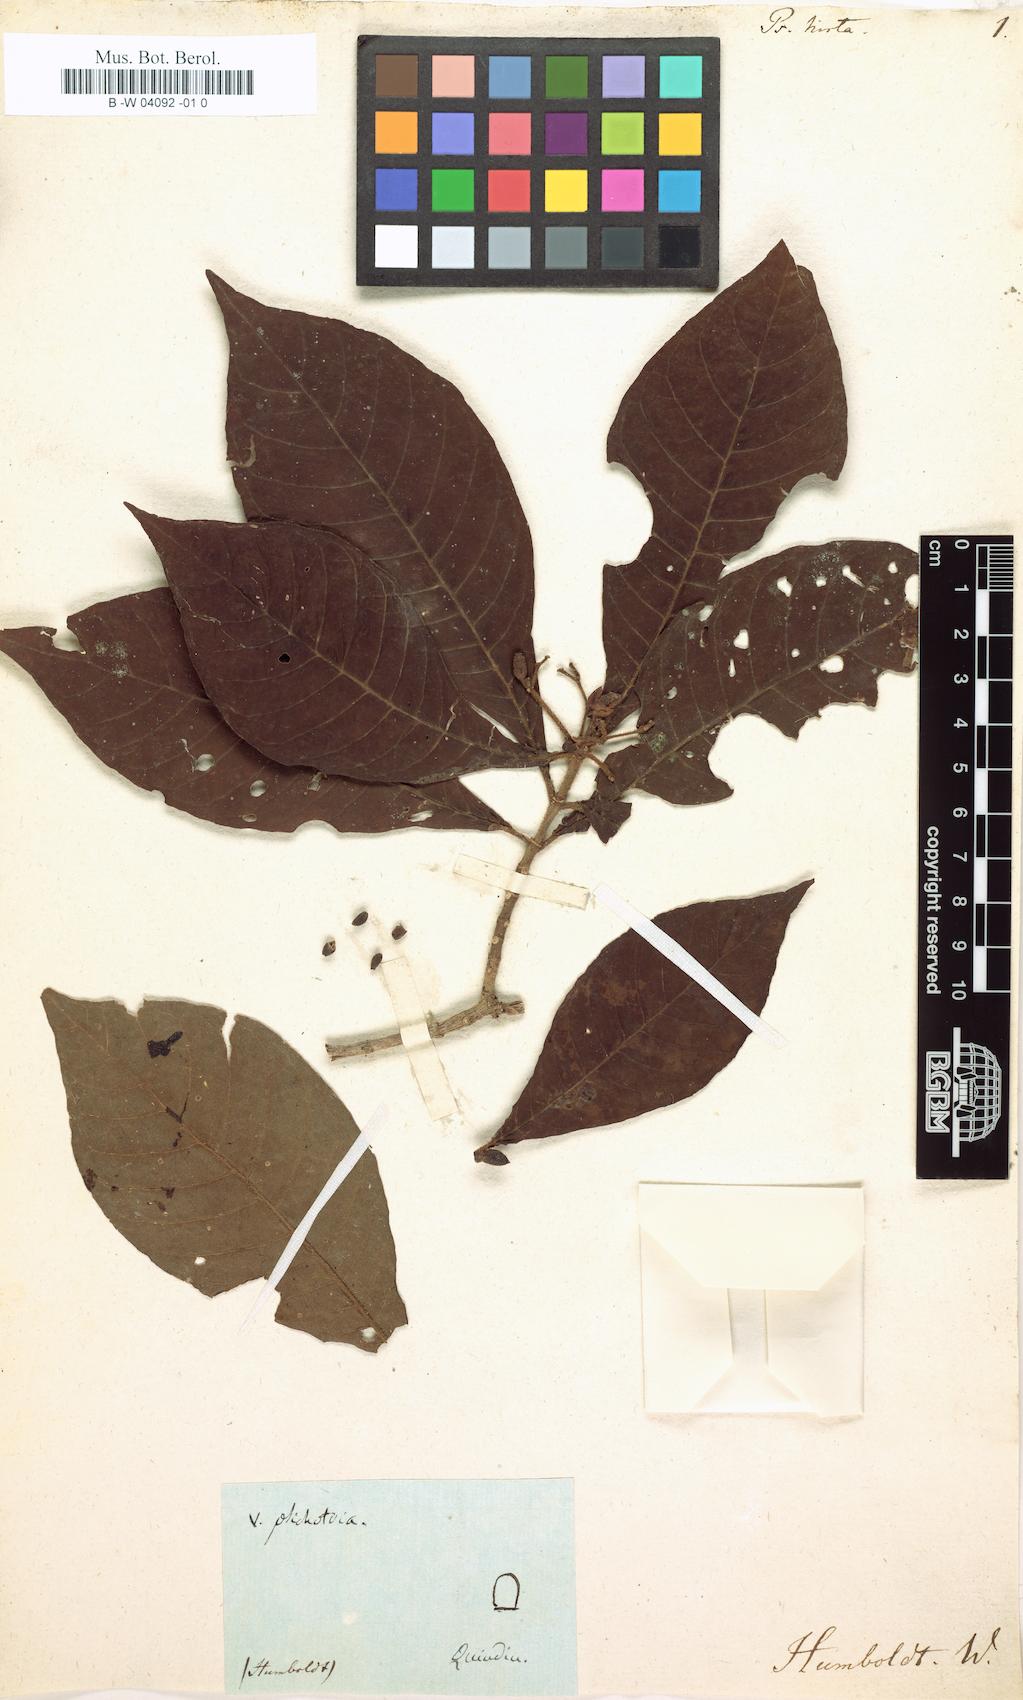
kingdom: Plantae
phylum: Tracheophyta
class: Magnoliopsida
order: Gentianales
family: Rubiaceae
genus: Psychotria
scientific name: Psychotria nervosa
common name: Bastard cankerberry
